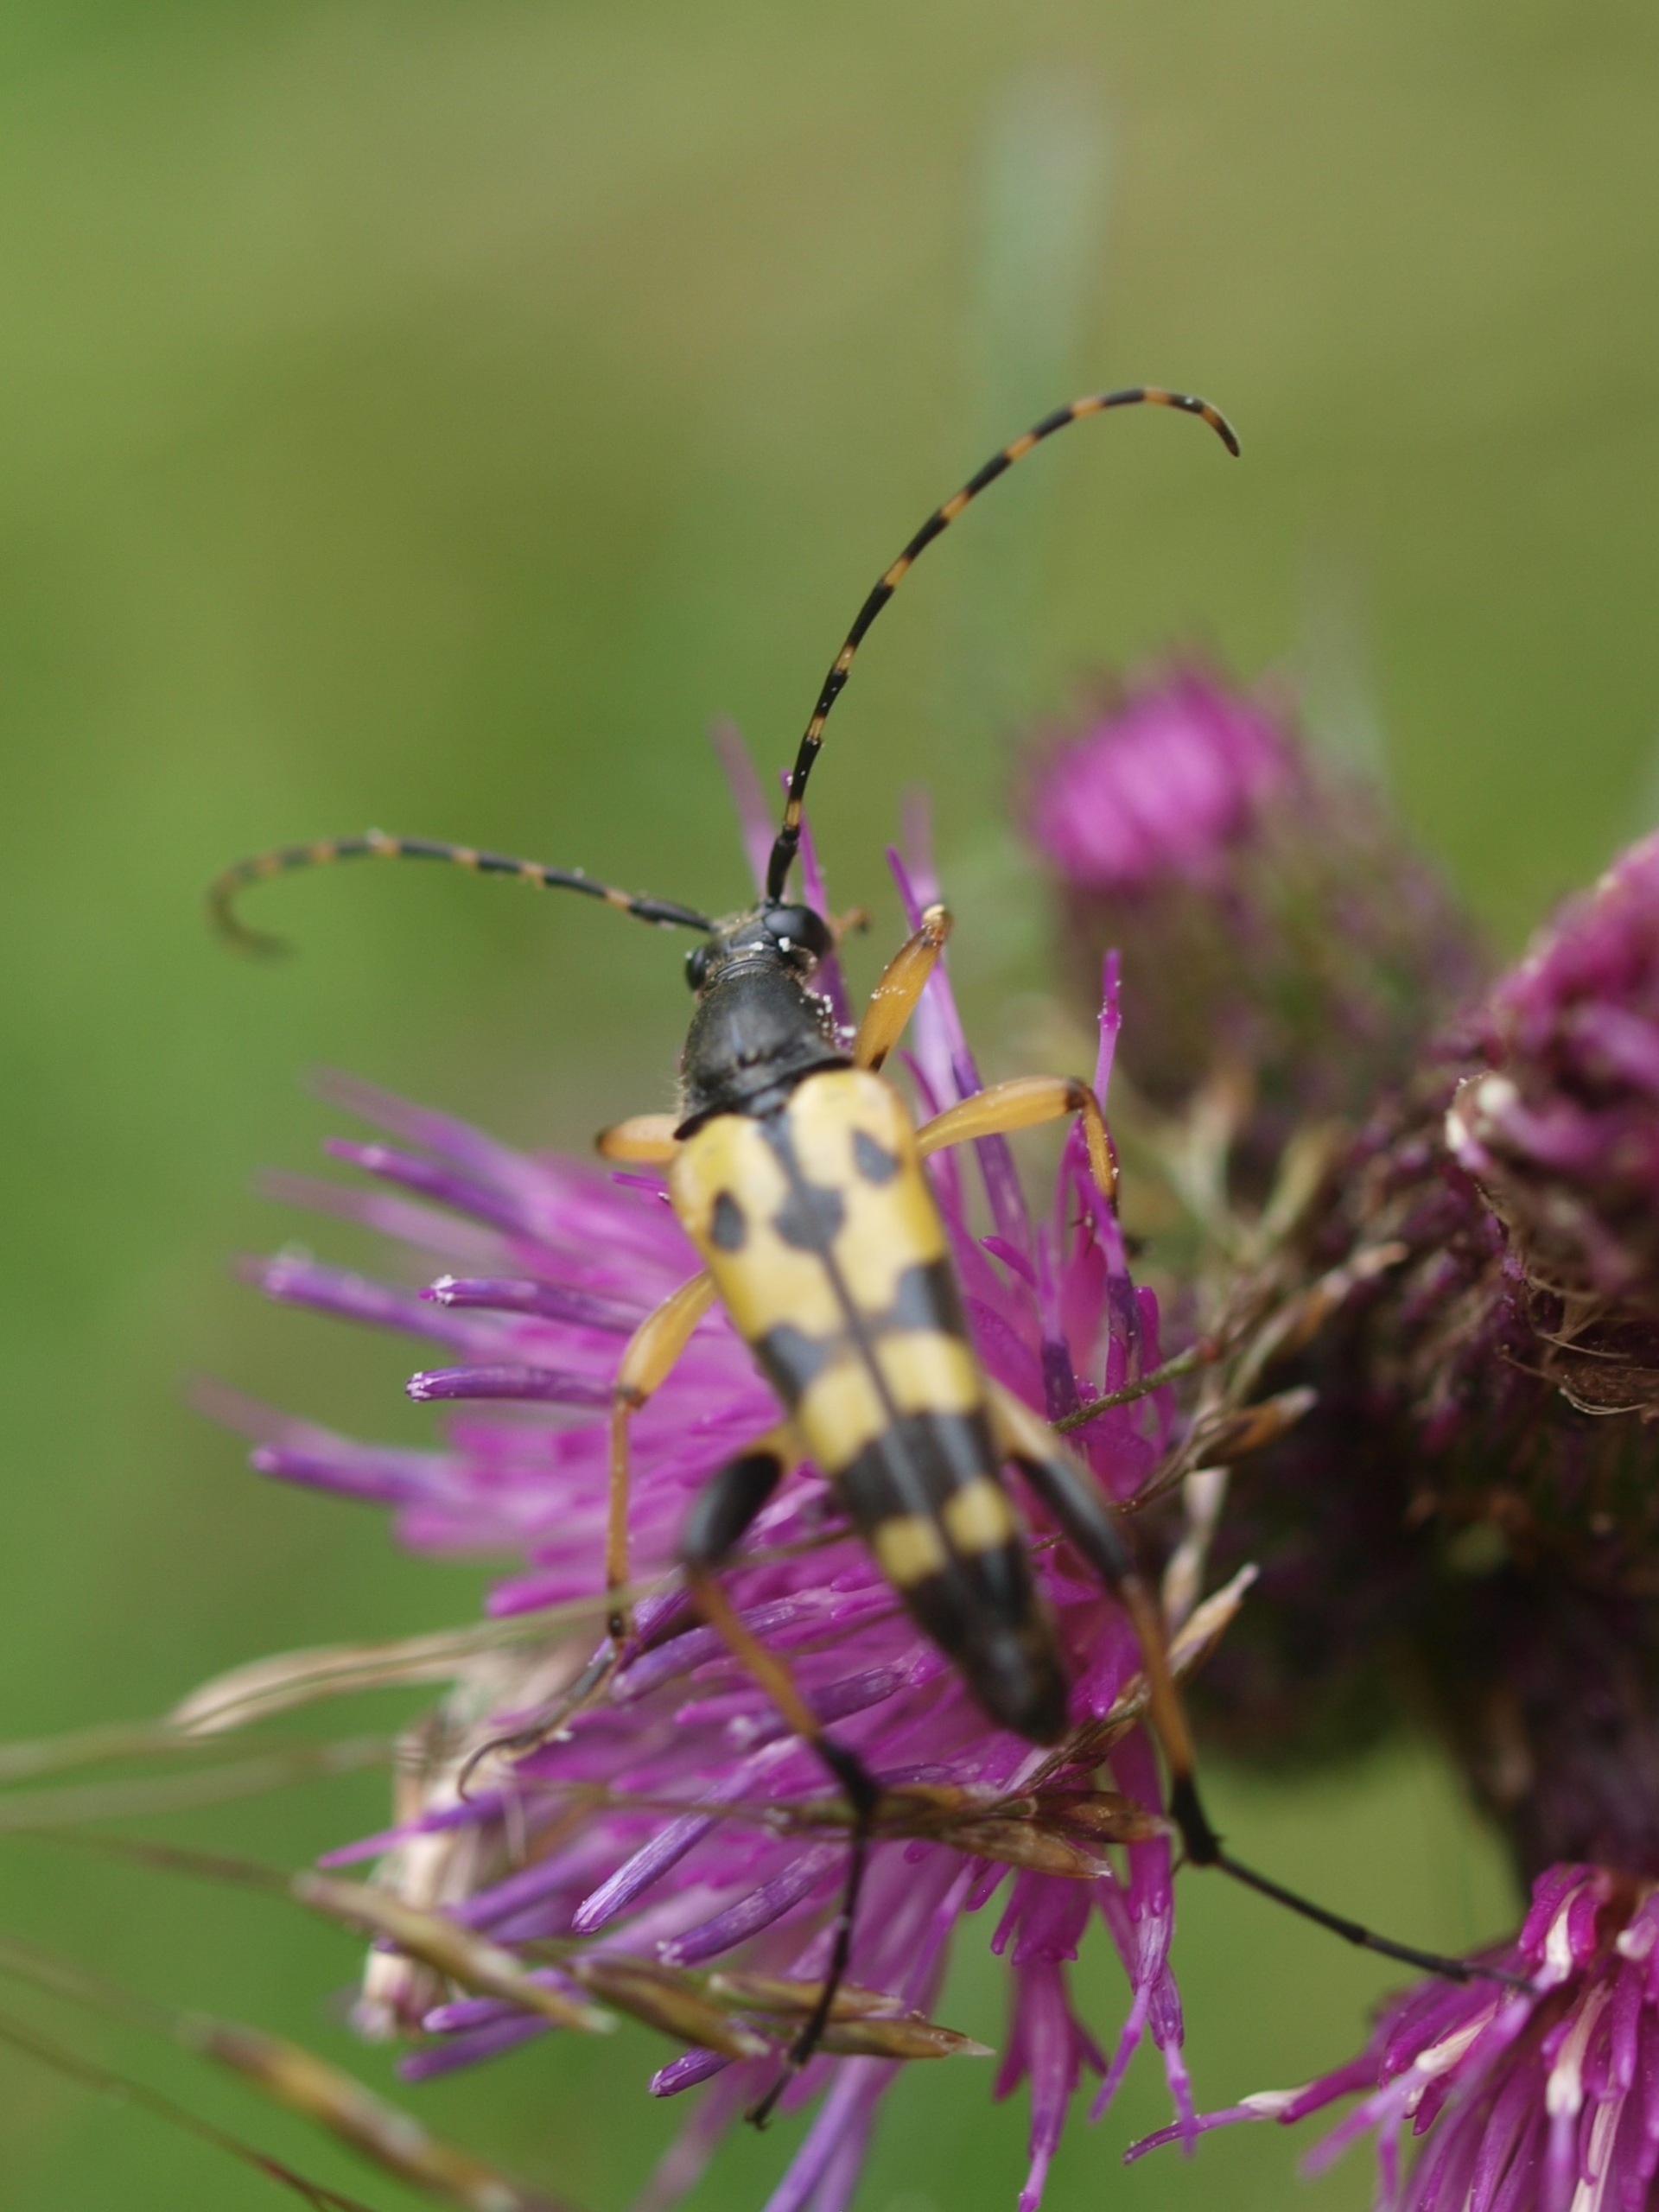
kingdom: Animalia
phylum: Arthropoda
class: Insecta
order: Coleoptera
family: Cerambycidae
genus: Rutpela
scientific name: Rutpela maculata
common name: Sydlig blomsterbuk
